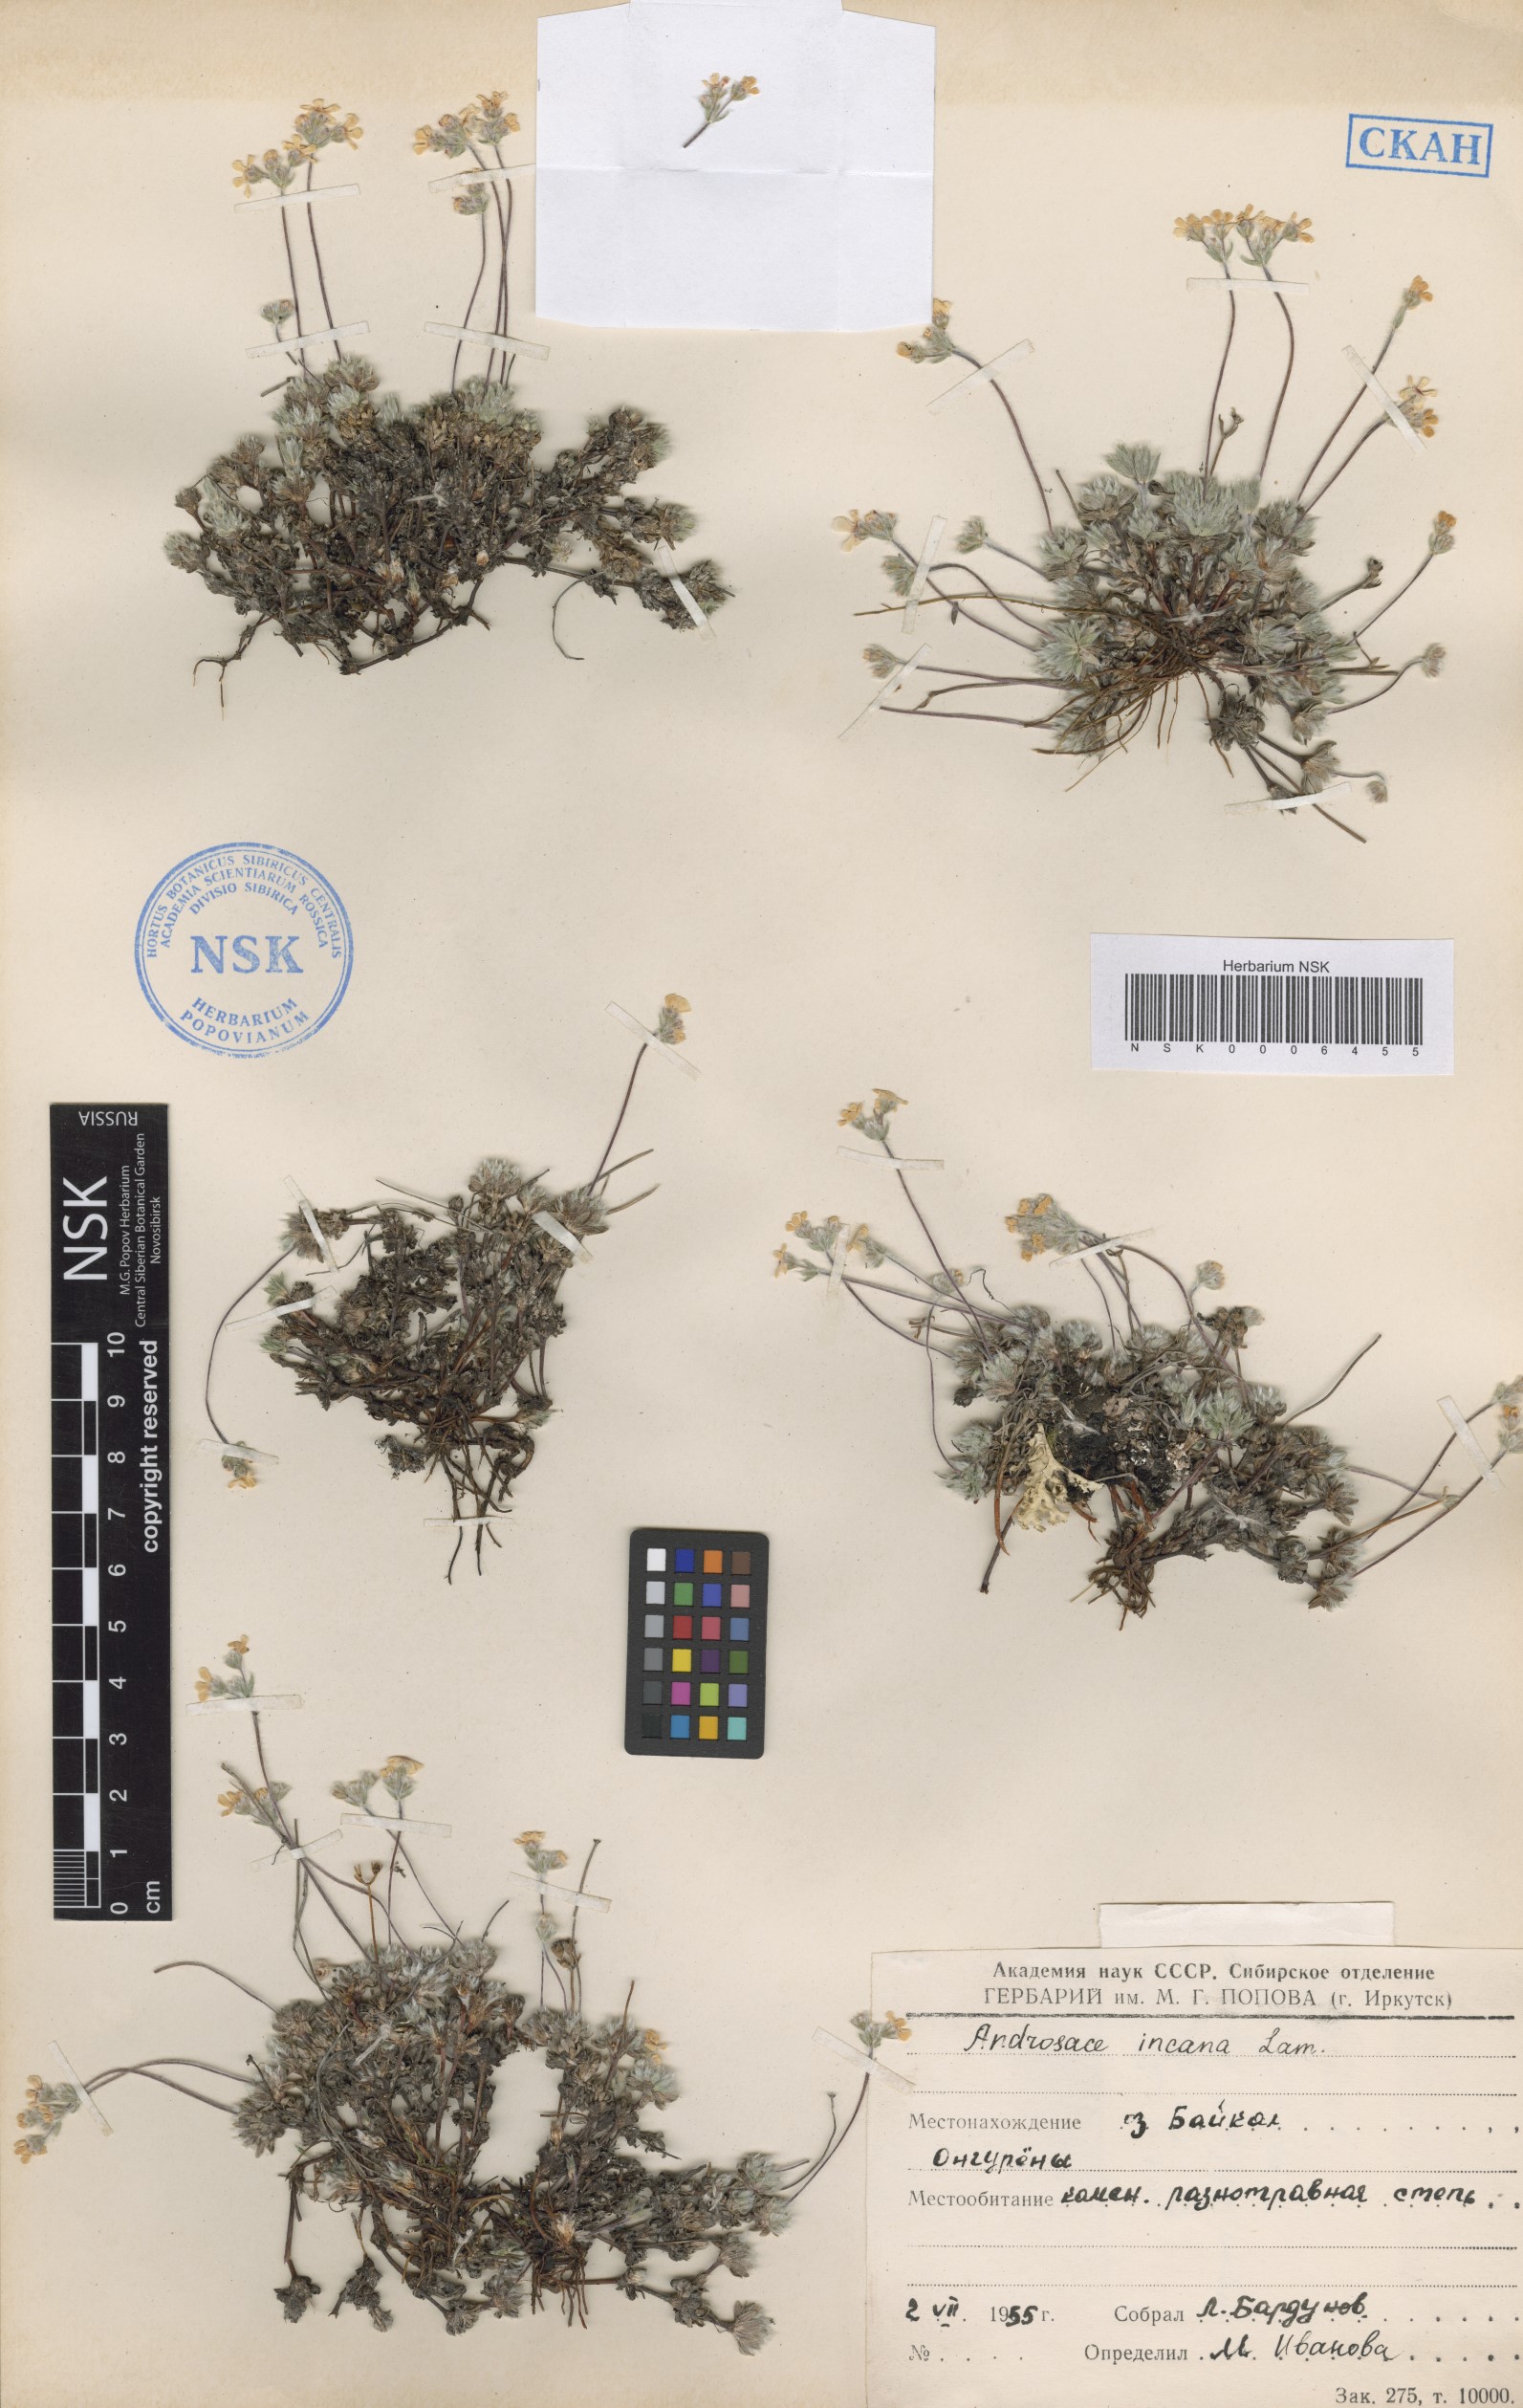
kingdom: Plantae
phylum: Tracheophyta
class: Magnoliopsida
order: Ericales
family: Primulaceae
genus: Androsace
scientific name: Androsace incana
